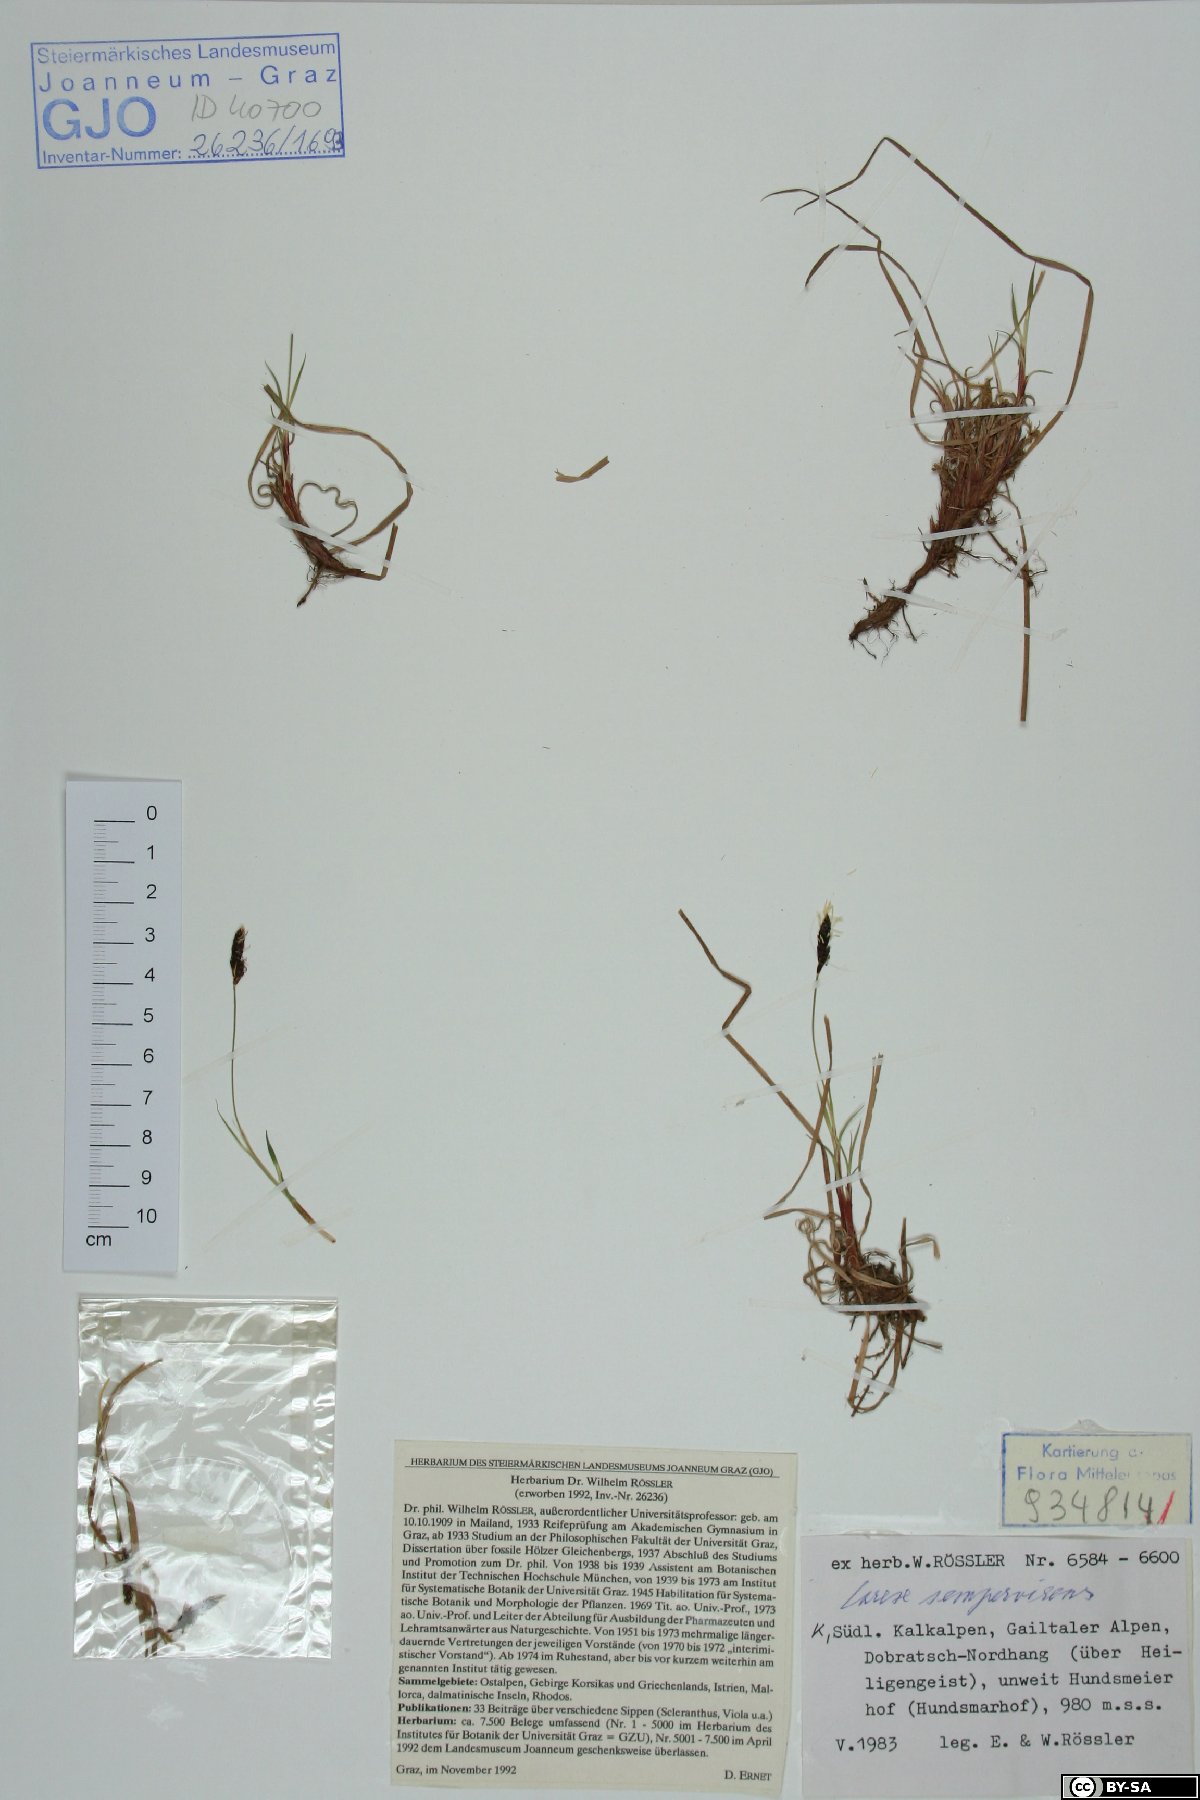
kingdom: Plantae
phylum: Tracheophyta
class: Liliopsida
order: Poales
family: Cyperaceae
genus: Carex
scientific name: Carex sempervirens
